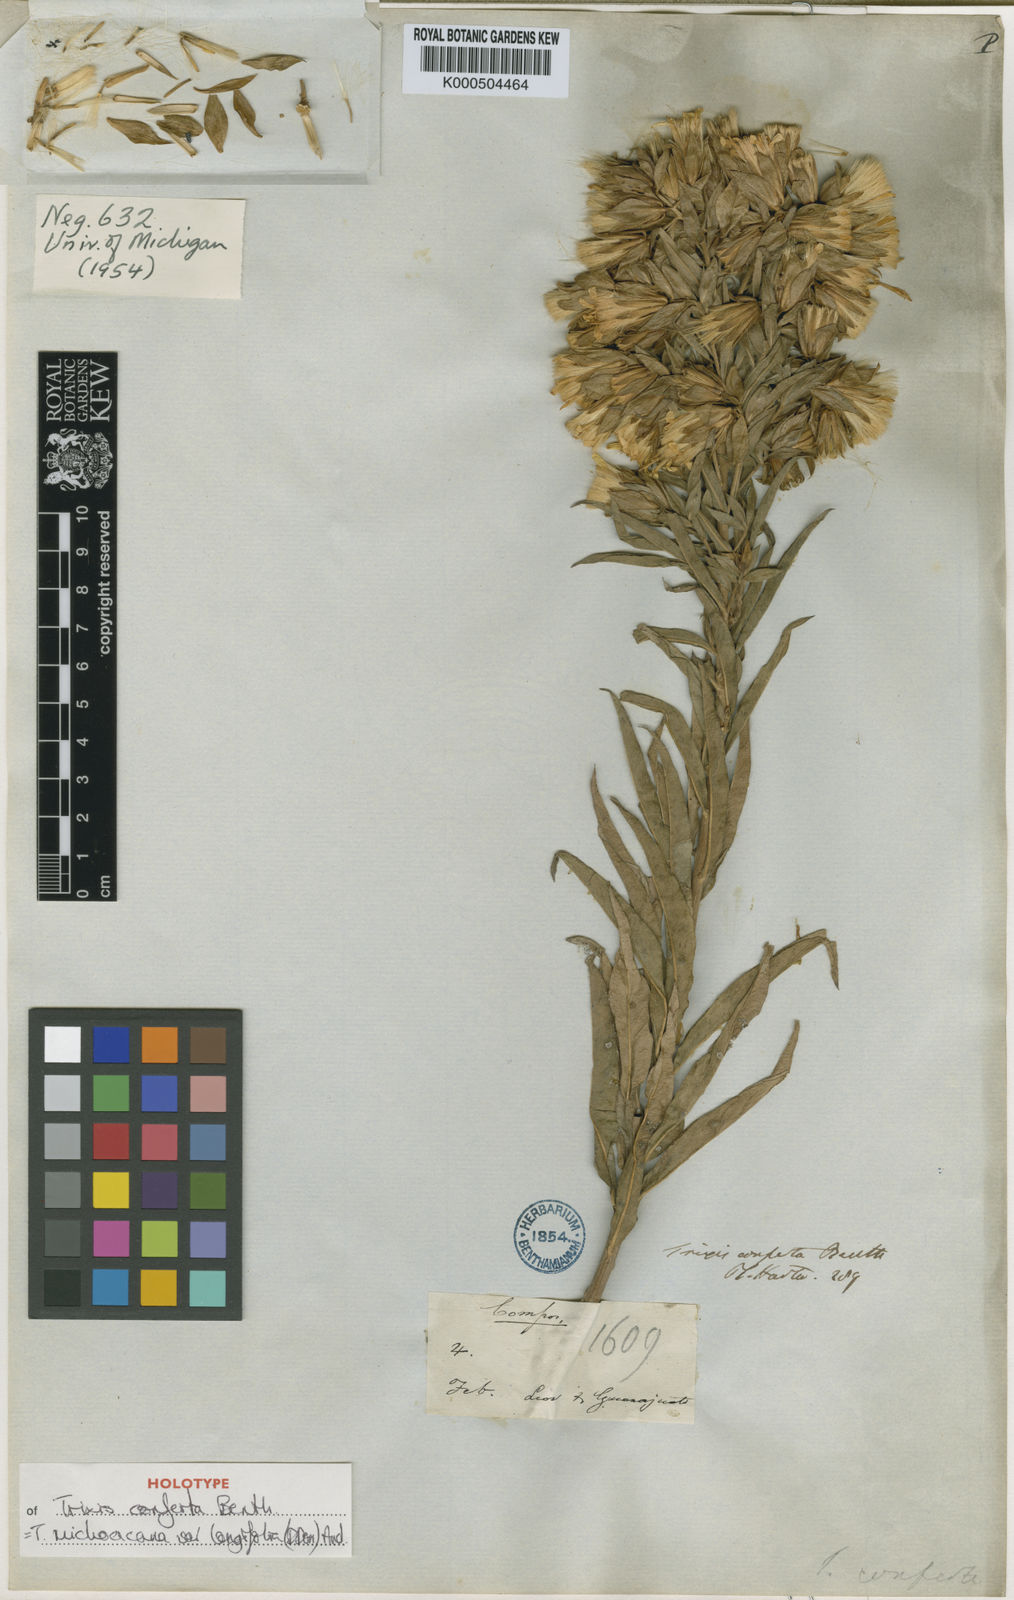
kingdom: Plantae
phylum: Tracheophyta
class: Magnoliopsida
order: Asterales
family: Asteraceae
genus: Trixis
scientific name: Trixis michoacana
